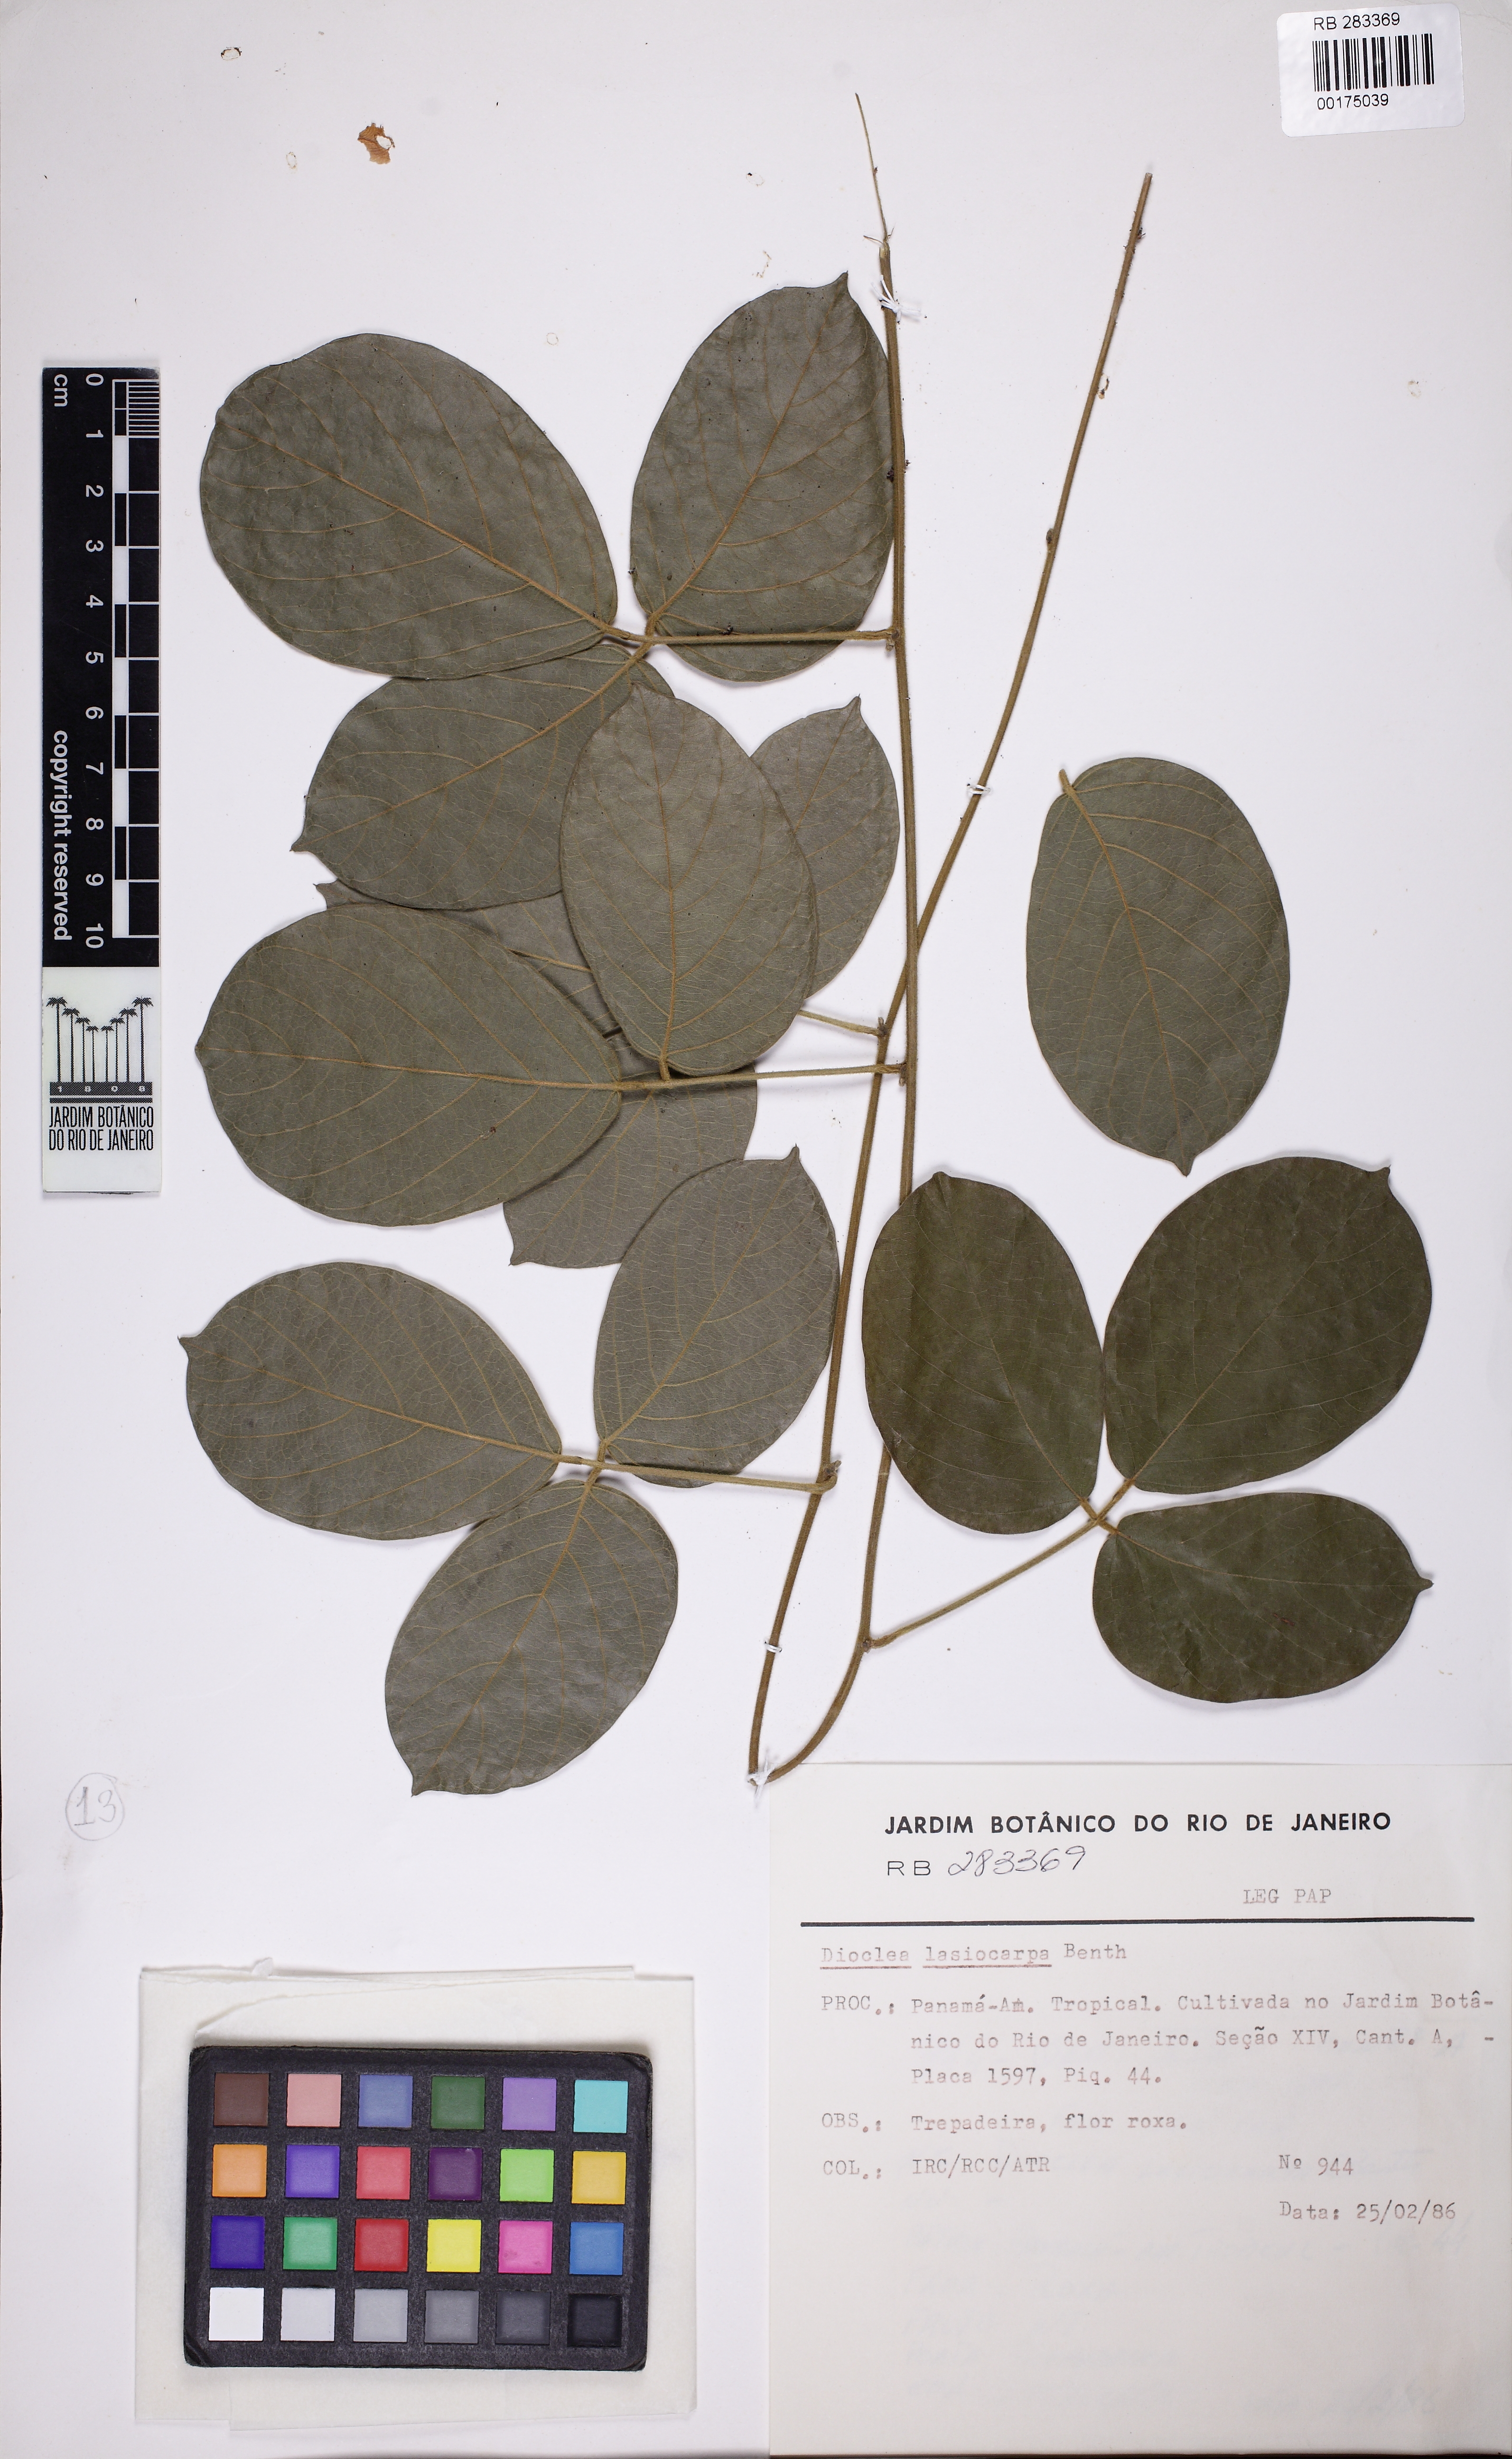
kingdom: Plantae
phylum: Tracheophyta
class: Magnoliopsida
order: Fabales
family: Fabaceae
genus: Dioclea
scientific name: Dioclea lasiophylla
